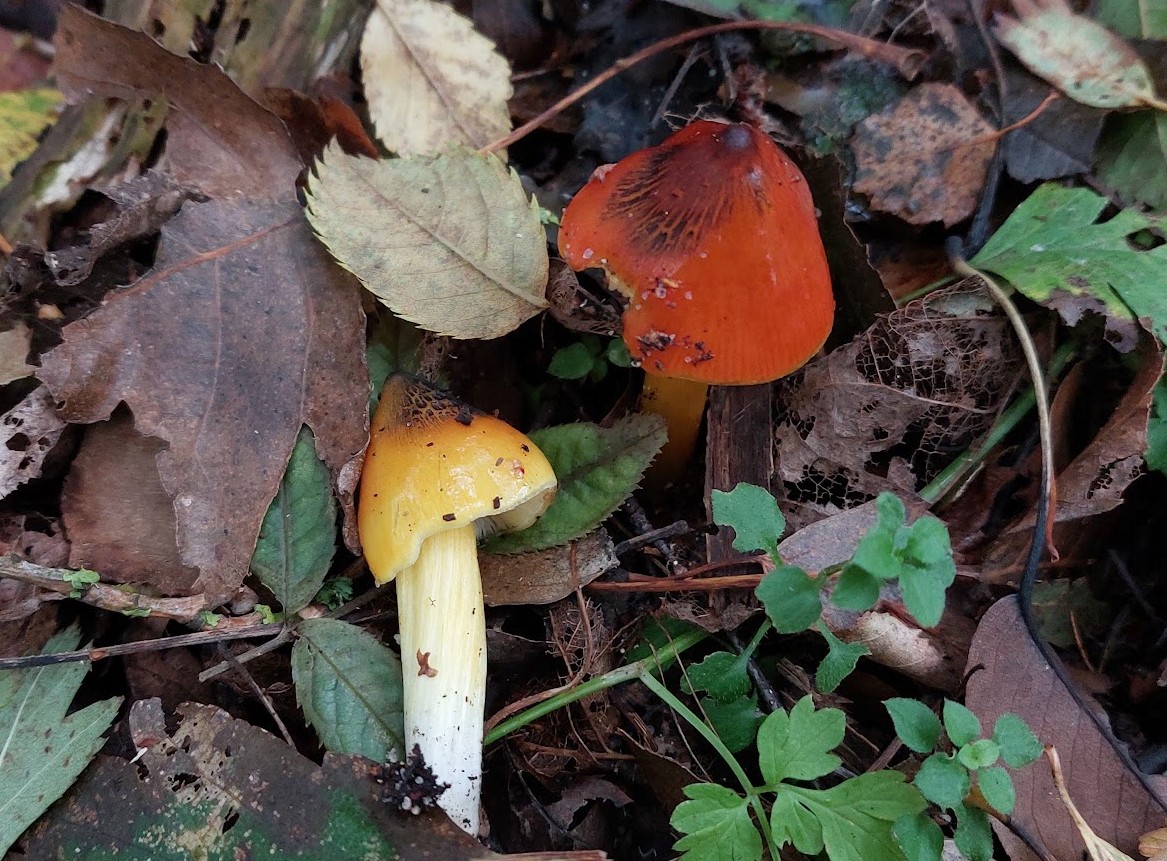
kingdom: Fungi
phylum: Basidiomycota
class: Agaricomycetes
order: Agaricales
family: Hygrophoraceae
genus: Hygrocybe
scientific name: Hygrocybe conica
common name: kegle-vokshat
